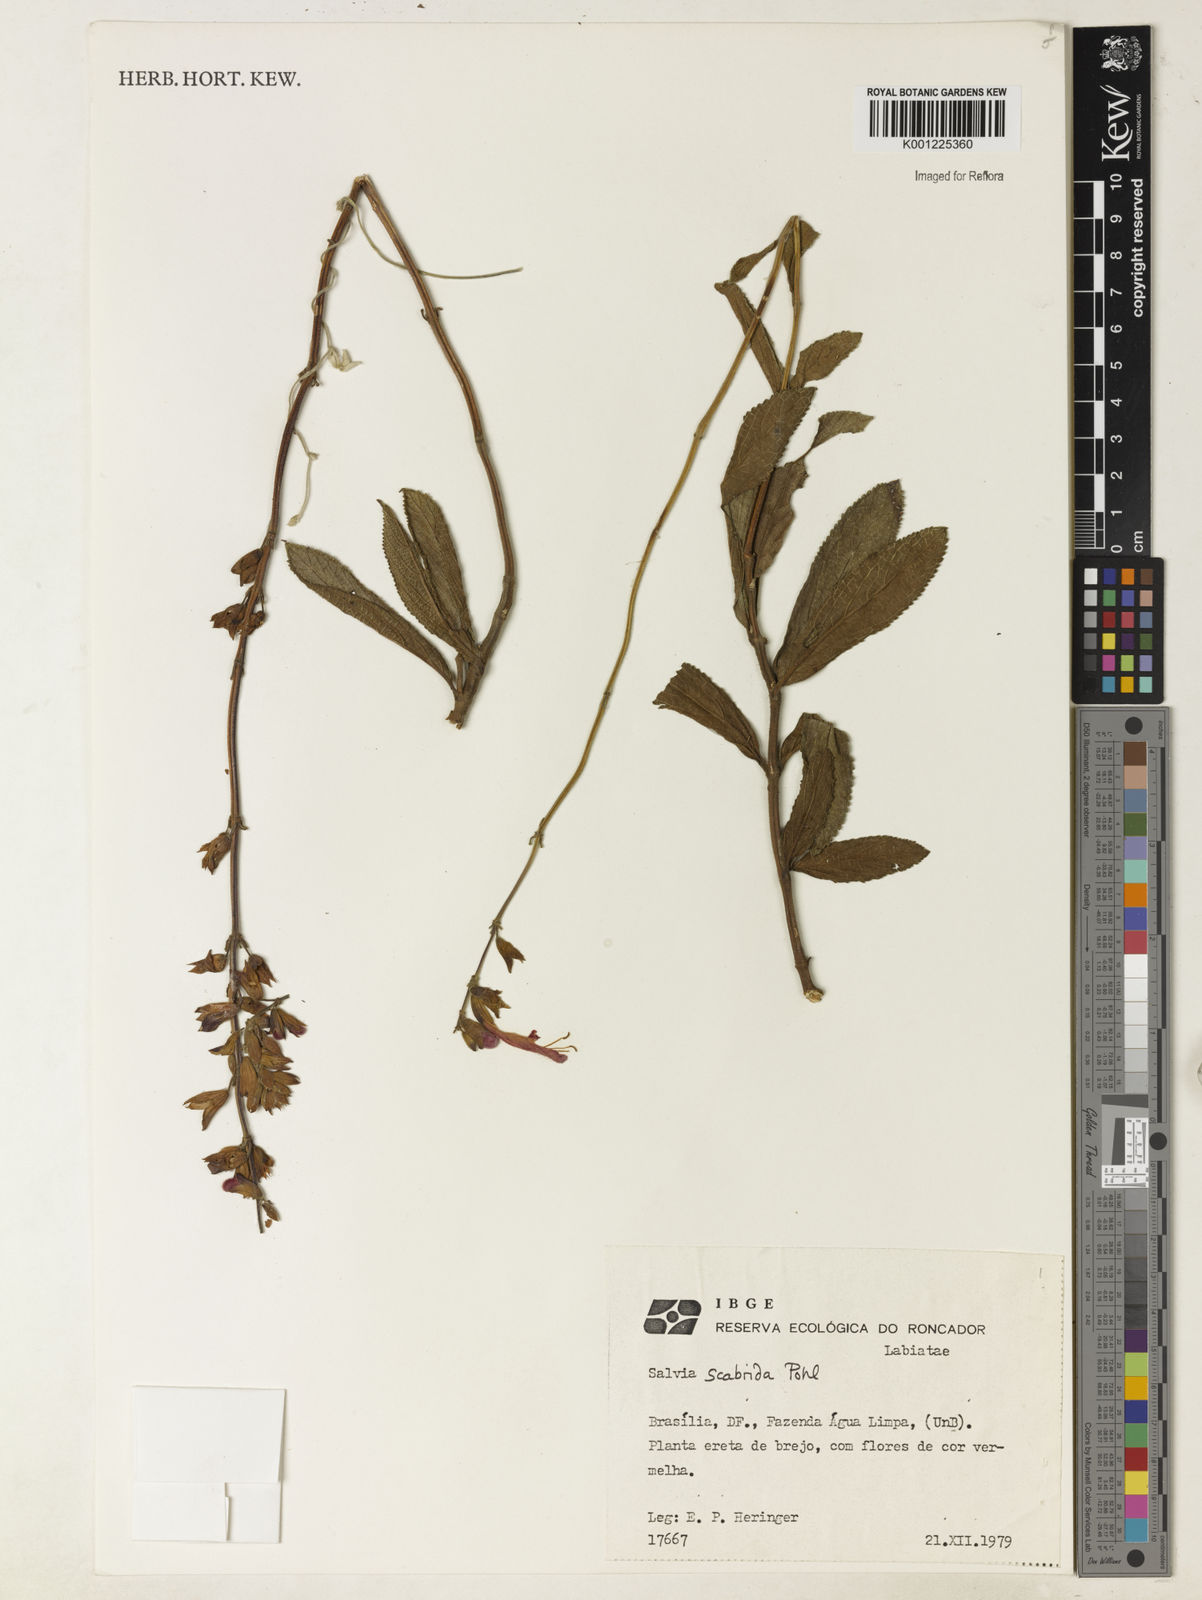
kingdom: Plantae
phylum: Tracheophyta
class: Magnoliopsida
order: Lamiales
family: Lamiaceae
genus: Salvia
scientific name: Salvia scabrida
